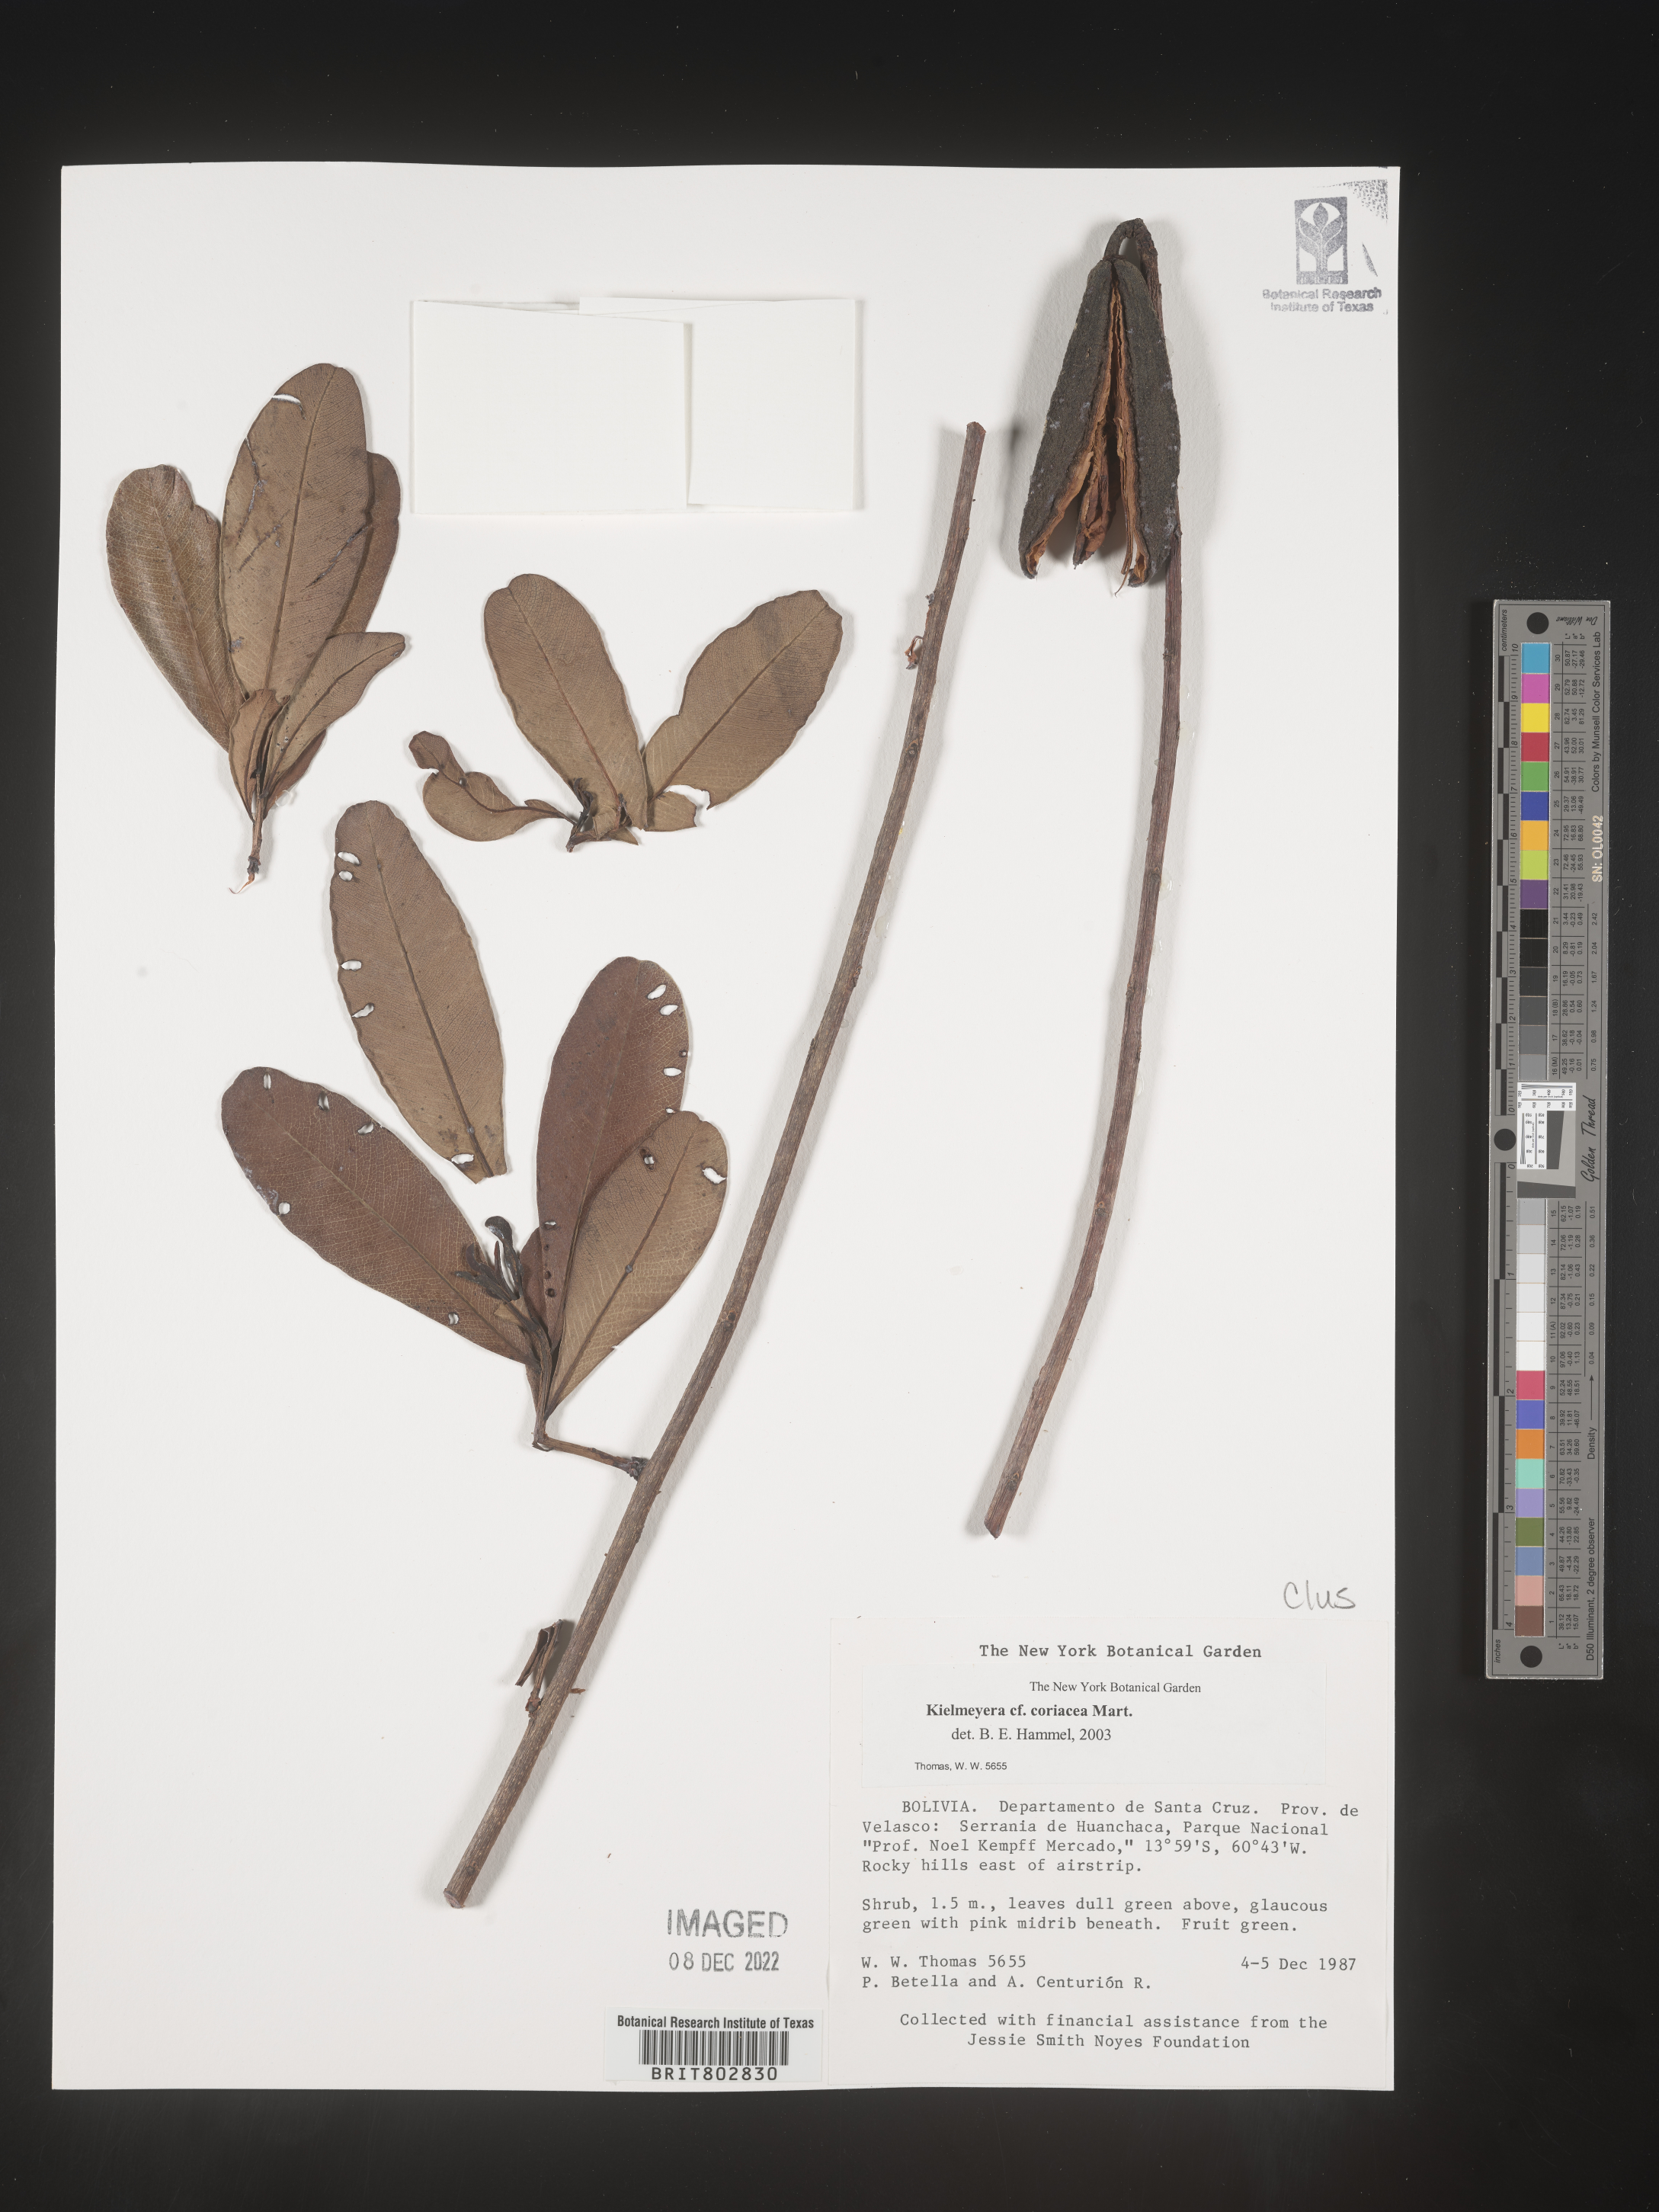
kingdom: Plantae
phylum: Tracheophyta
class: Magnoliopsida
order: Malpighiales
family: Calophyllaceae
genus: Kielmeyera
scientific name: Kielmeyera
